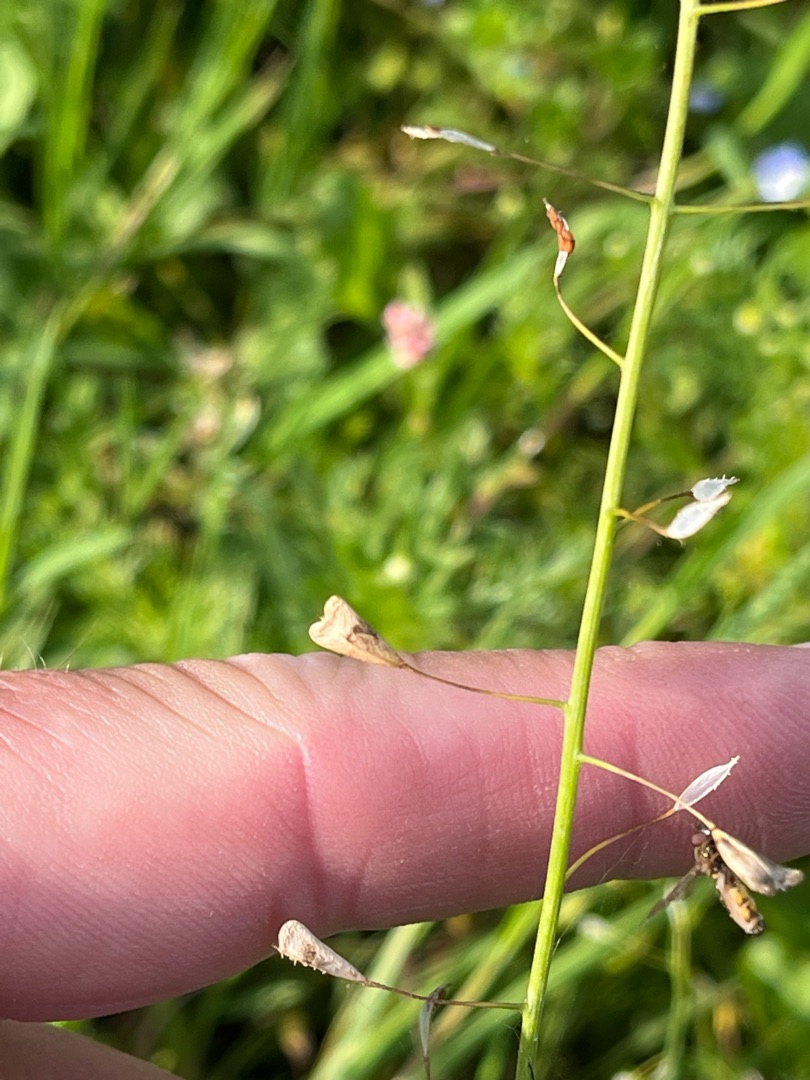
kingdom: Plantae
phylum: Tracheophyta
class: Magnoliopsida
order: Brassicales
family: Brassicaceae
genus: Capsella
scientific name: Capsella bursa-pastoris
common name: Hyrdetaske
